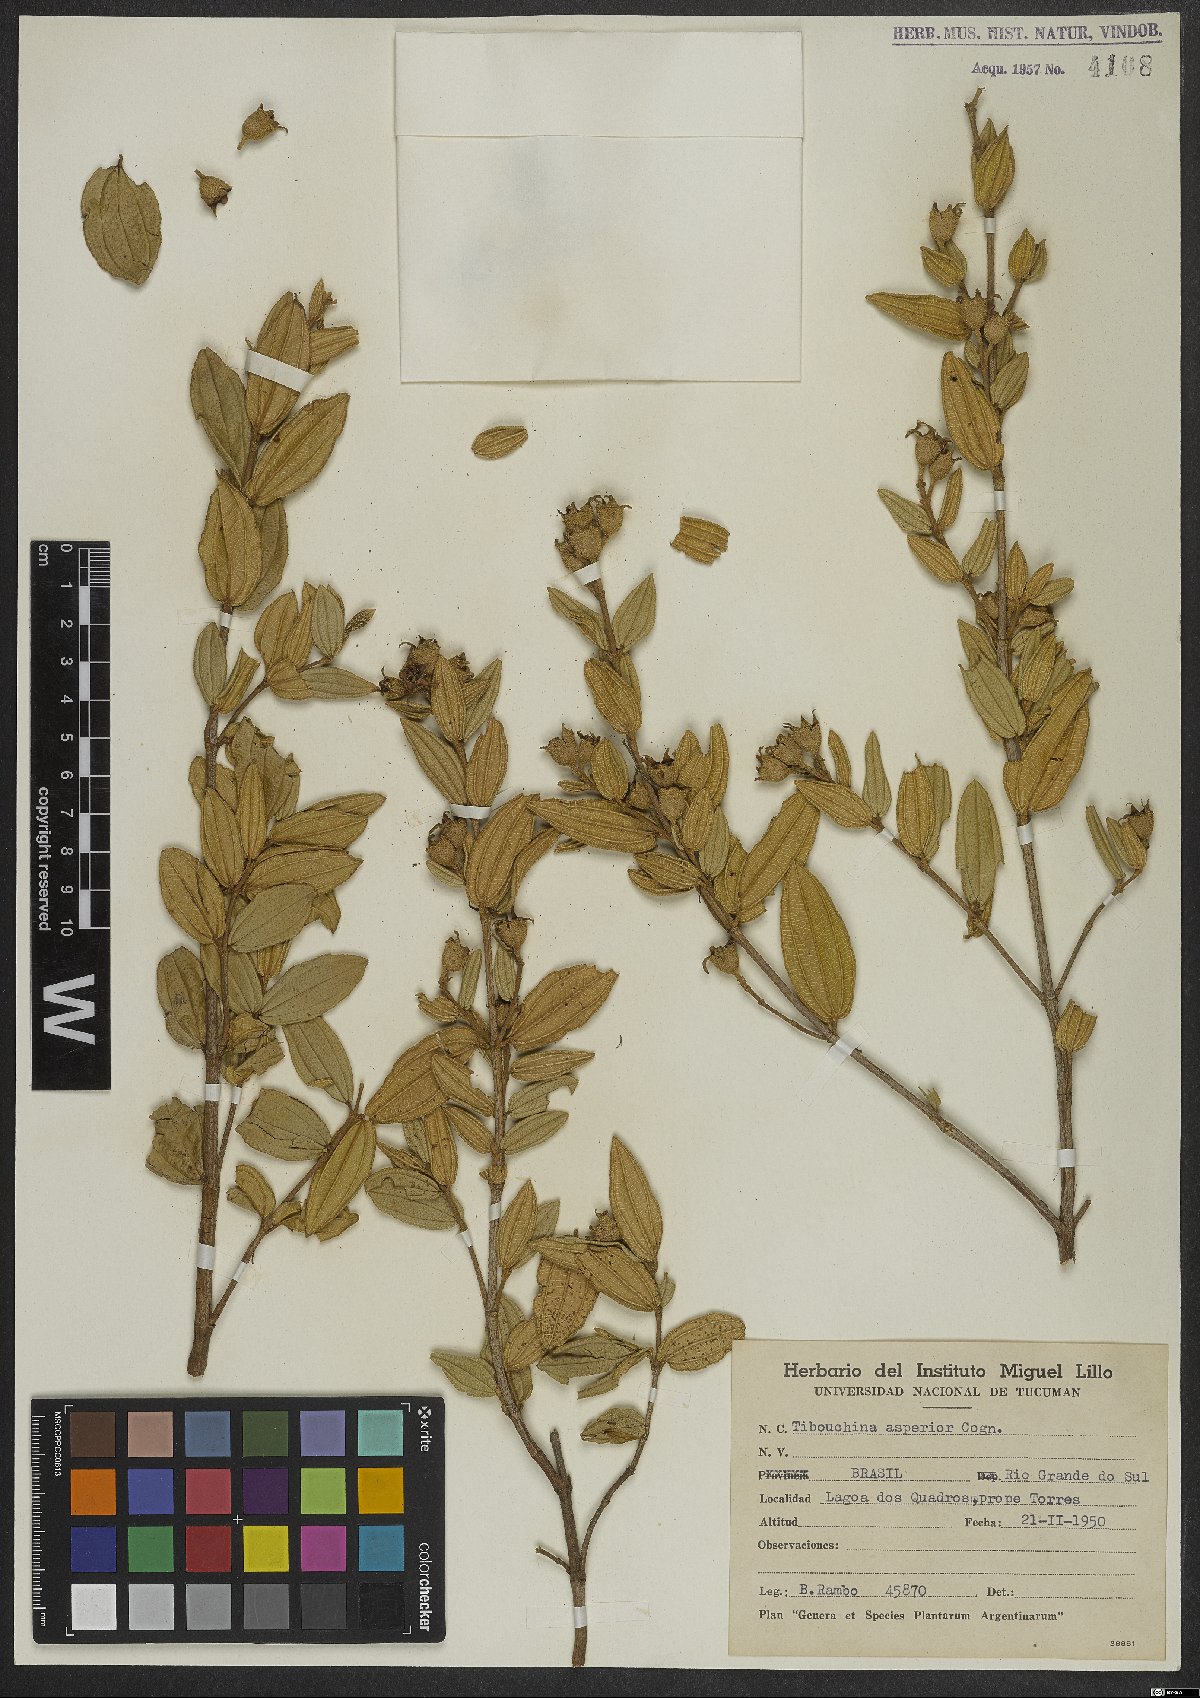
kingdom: Plantae
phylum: Tracheophyta
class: Magnoliopsida
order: Myrtales
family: Melastomataceae
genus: Pleroma
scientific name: Pleroma asperius
